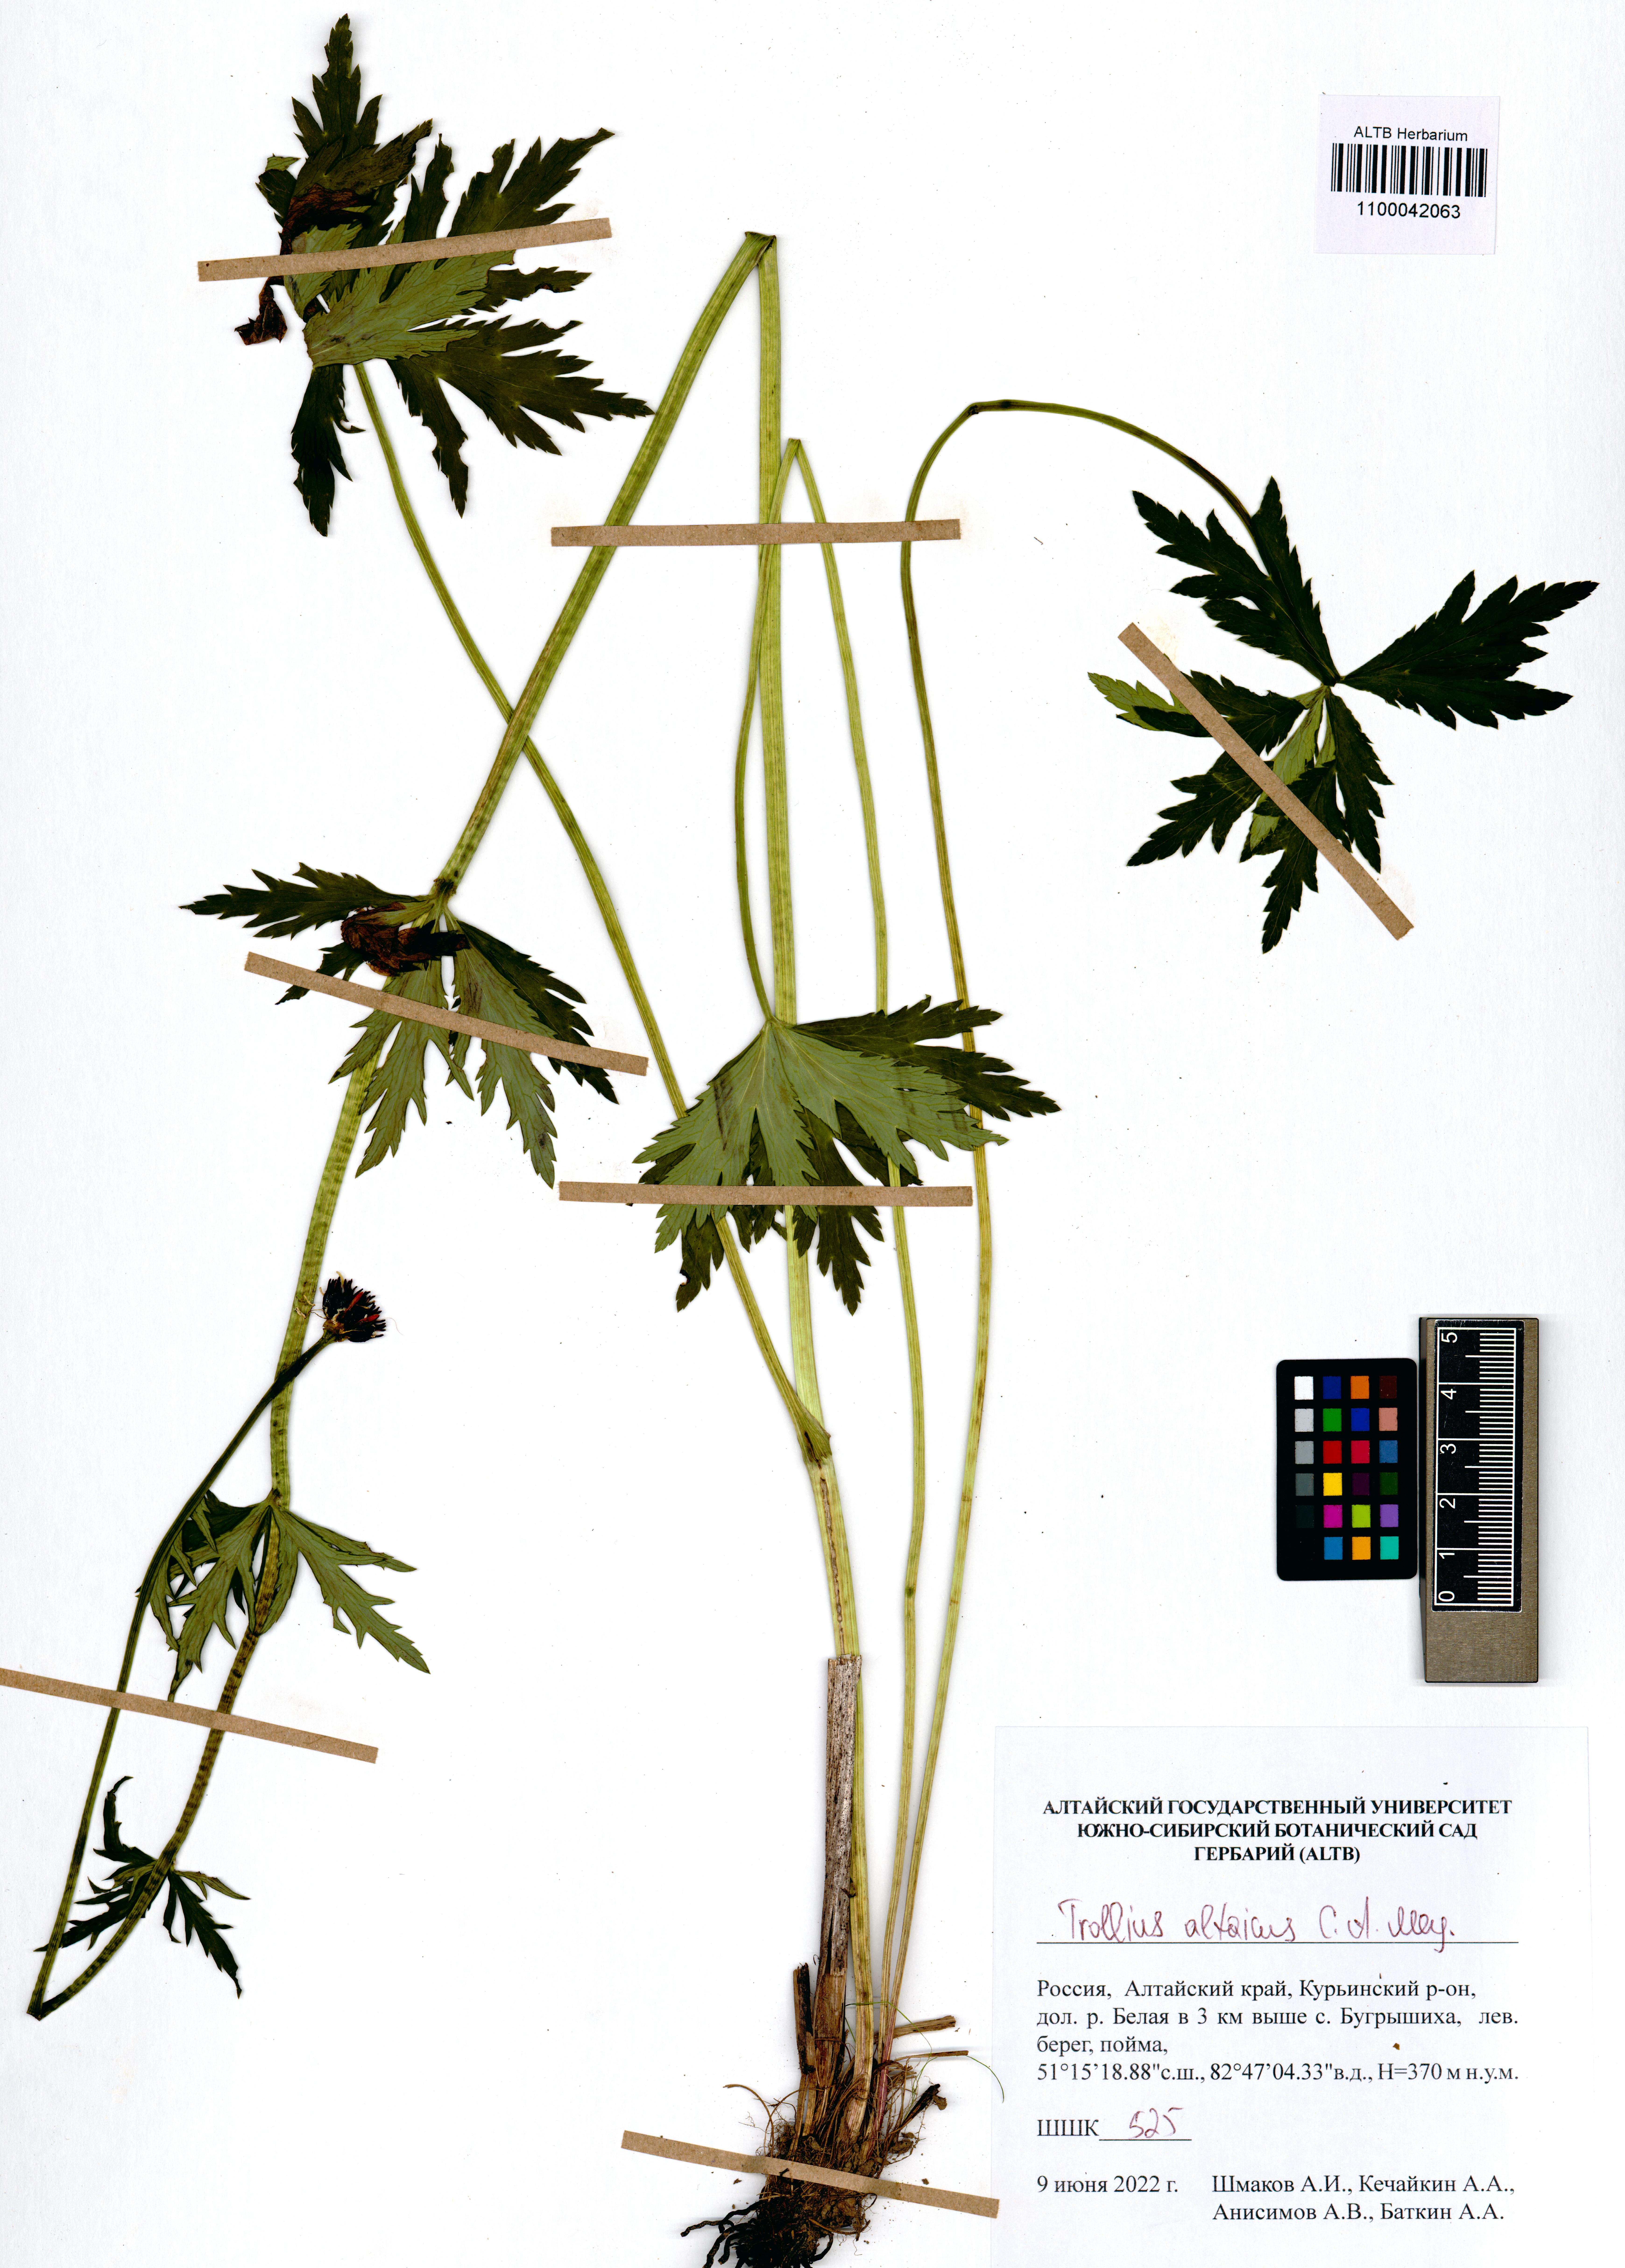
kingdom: Plantae
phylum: Tracheophyta
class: Magnoliopsida
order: Ranunculales
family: Ranunculaceae
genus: Trollius
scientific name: Trollius altaicus
